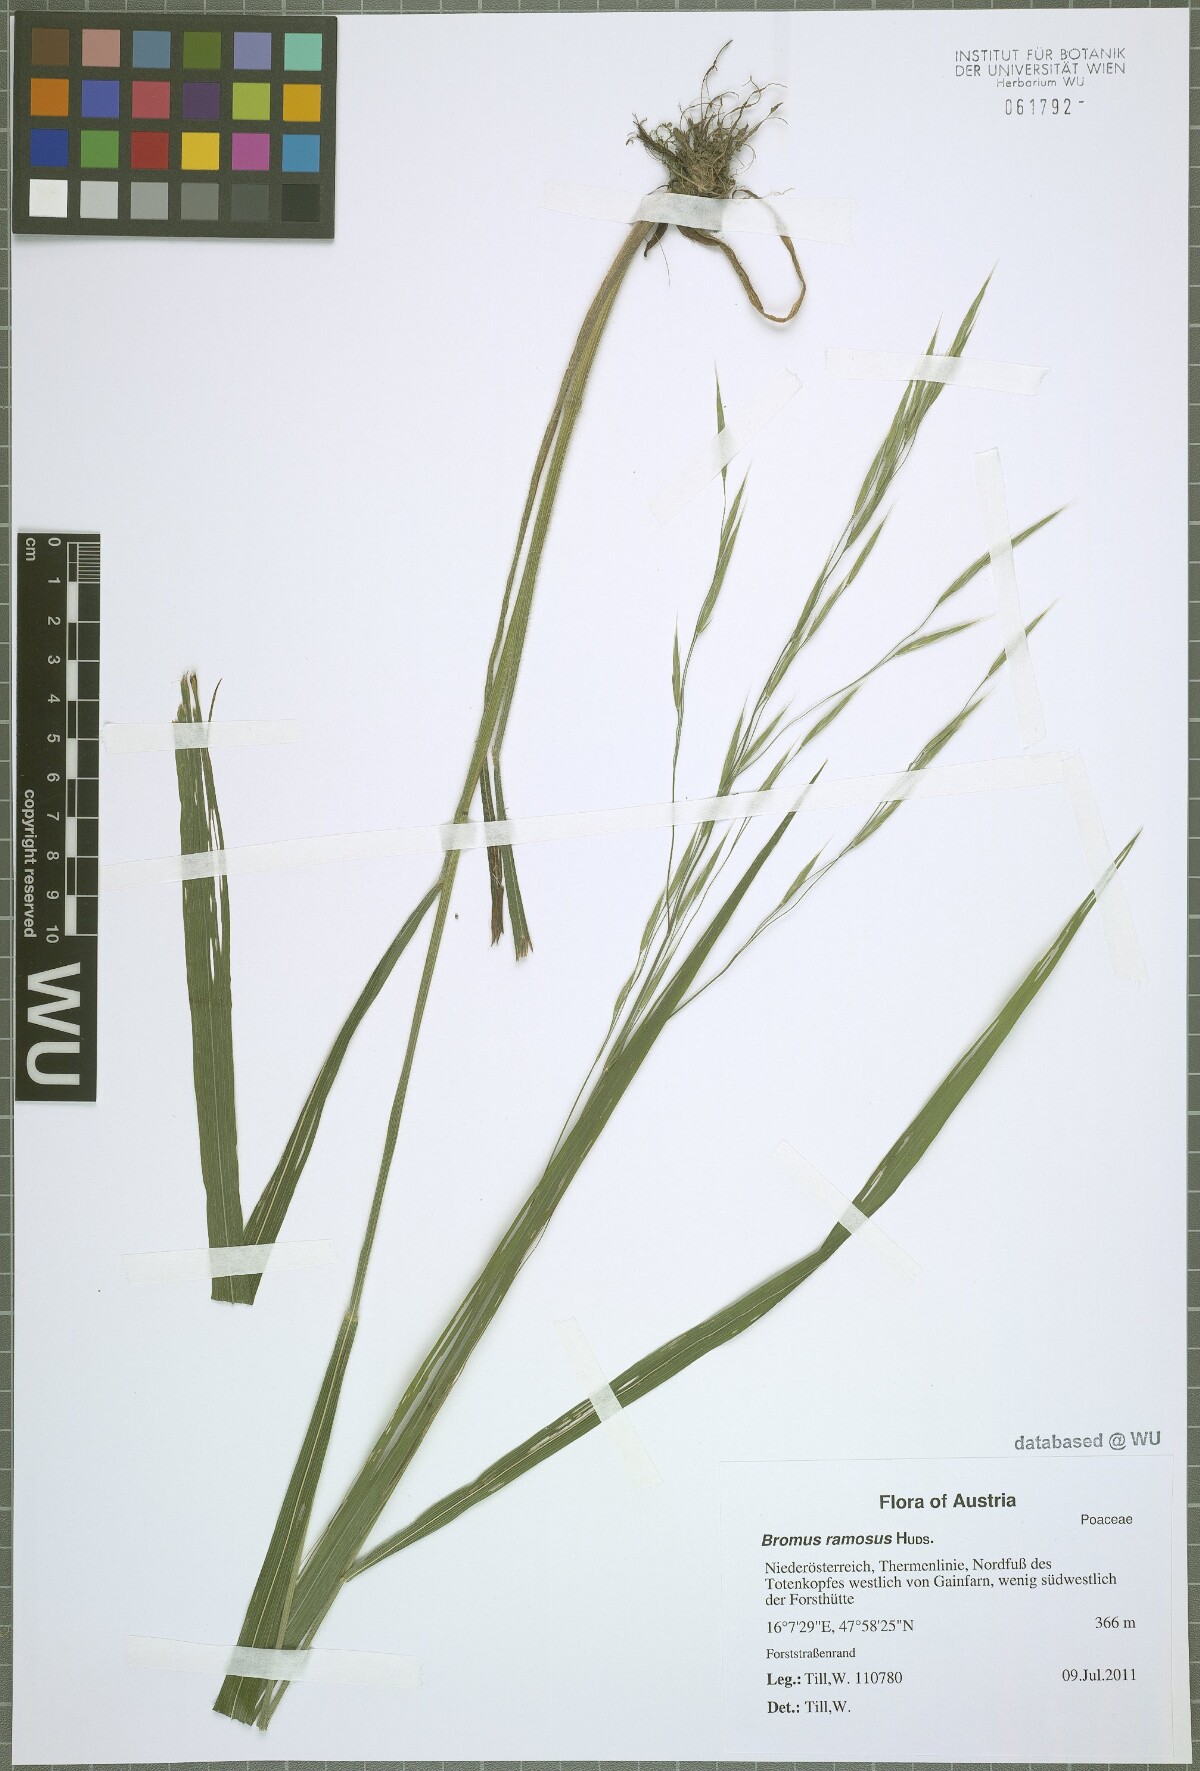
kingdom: Plantae
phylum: Tracheophyta
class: Liliopsida
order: Poales
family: Poaceae
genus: Bromus
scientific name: Bromus ramosus
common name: Hairy brome
